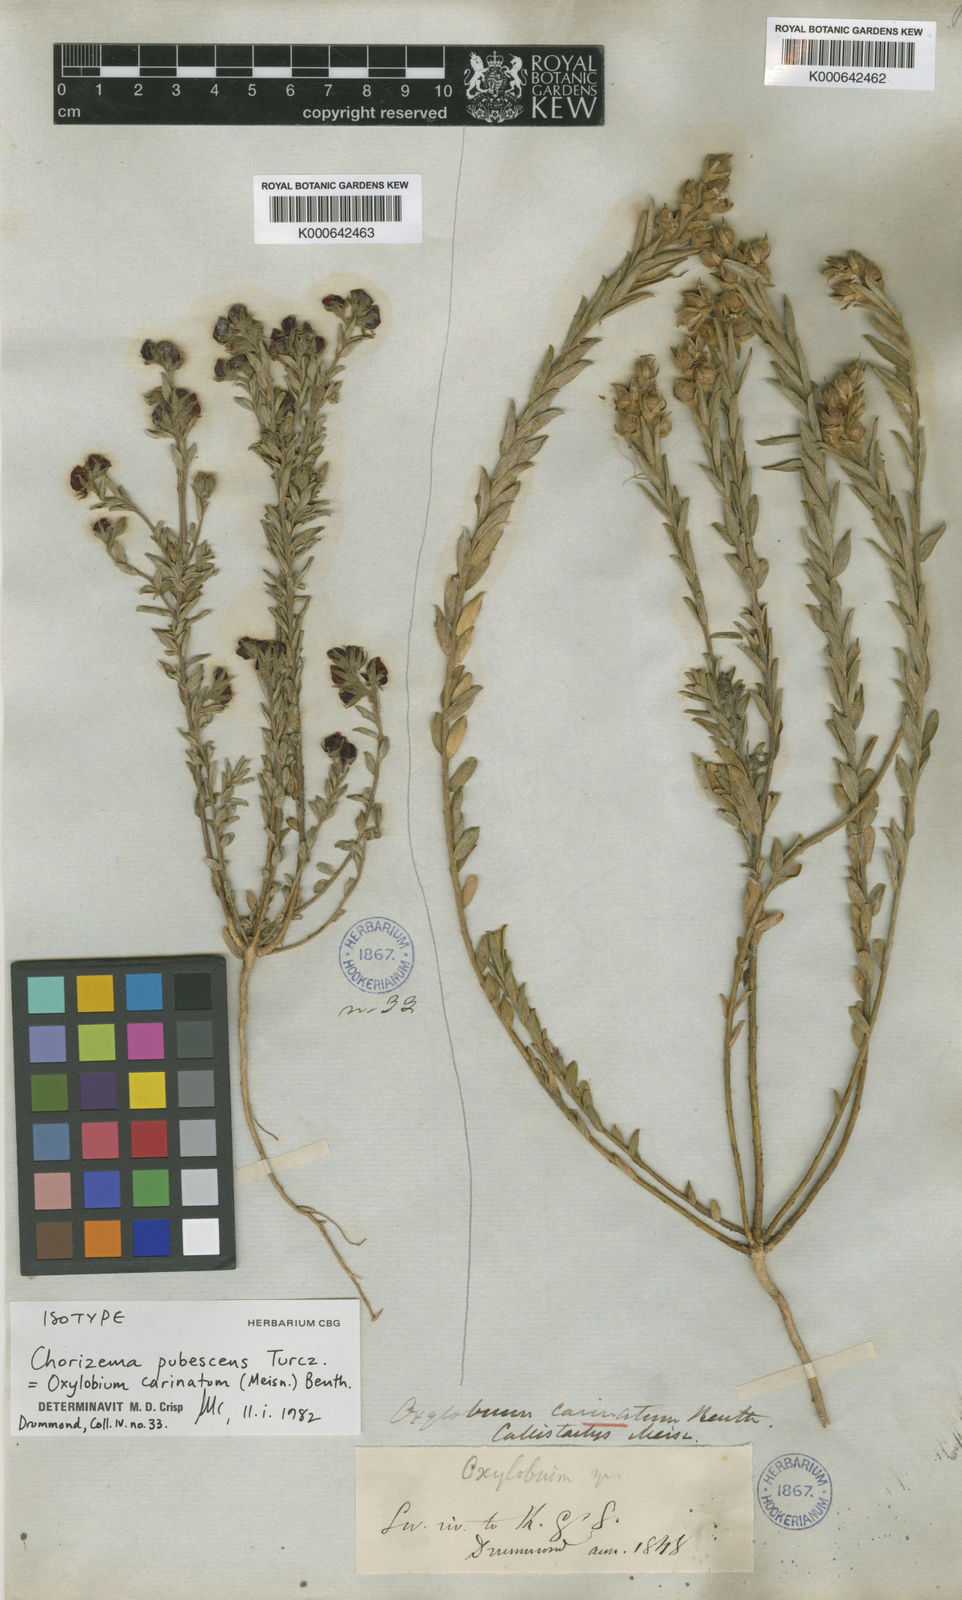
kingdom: Plantae
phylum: Tracheophyta
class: Magnoliopsida
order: Fabales
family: Fabaceae
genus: Chorizema
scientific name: Chorizema carinatum
